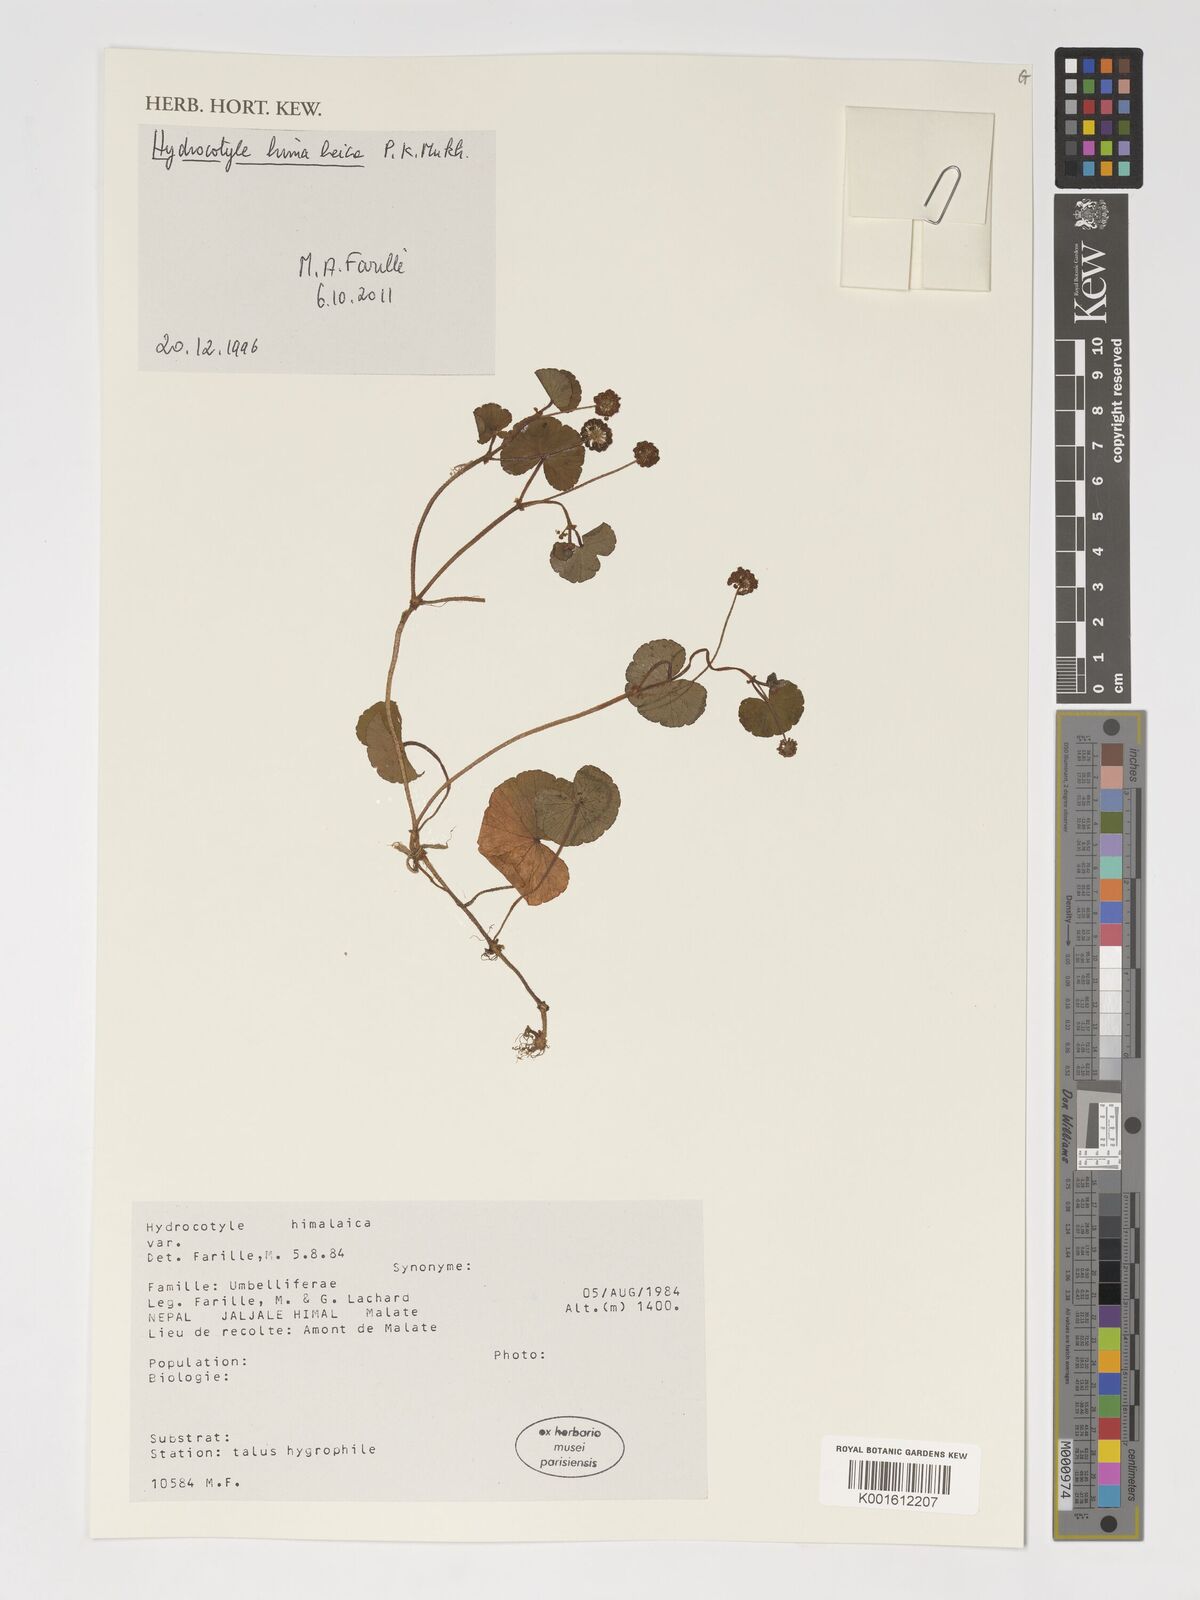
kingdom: Plantae
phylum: Tracheophyta
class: Magnoliopsida
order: Apiales
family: Araliaceae
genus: Hydrocotyle
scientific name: Hydrocotyle himalaica
